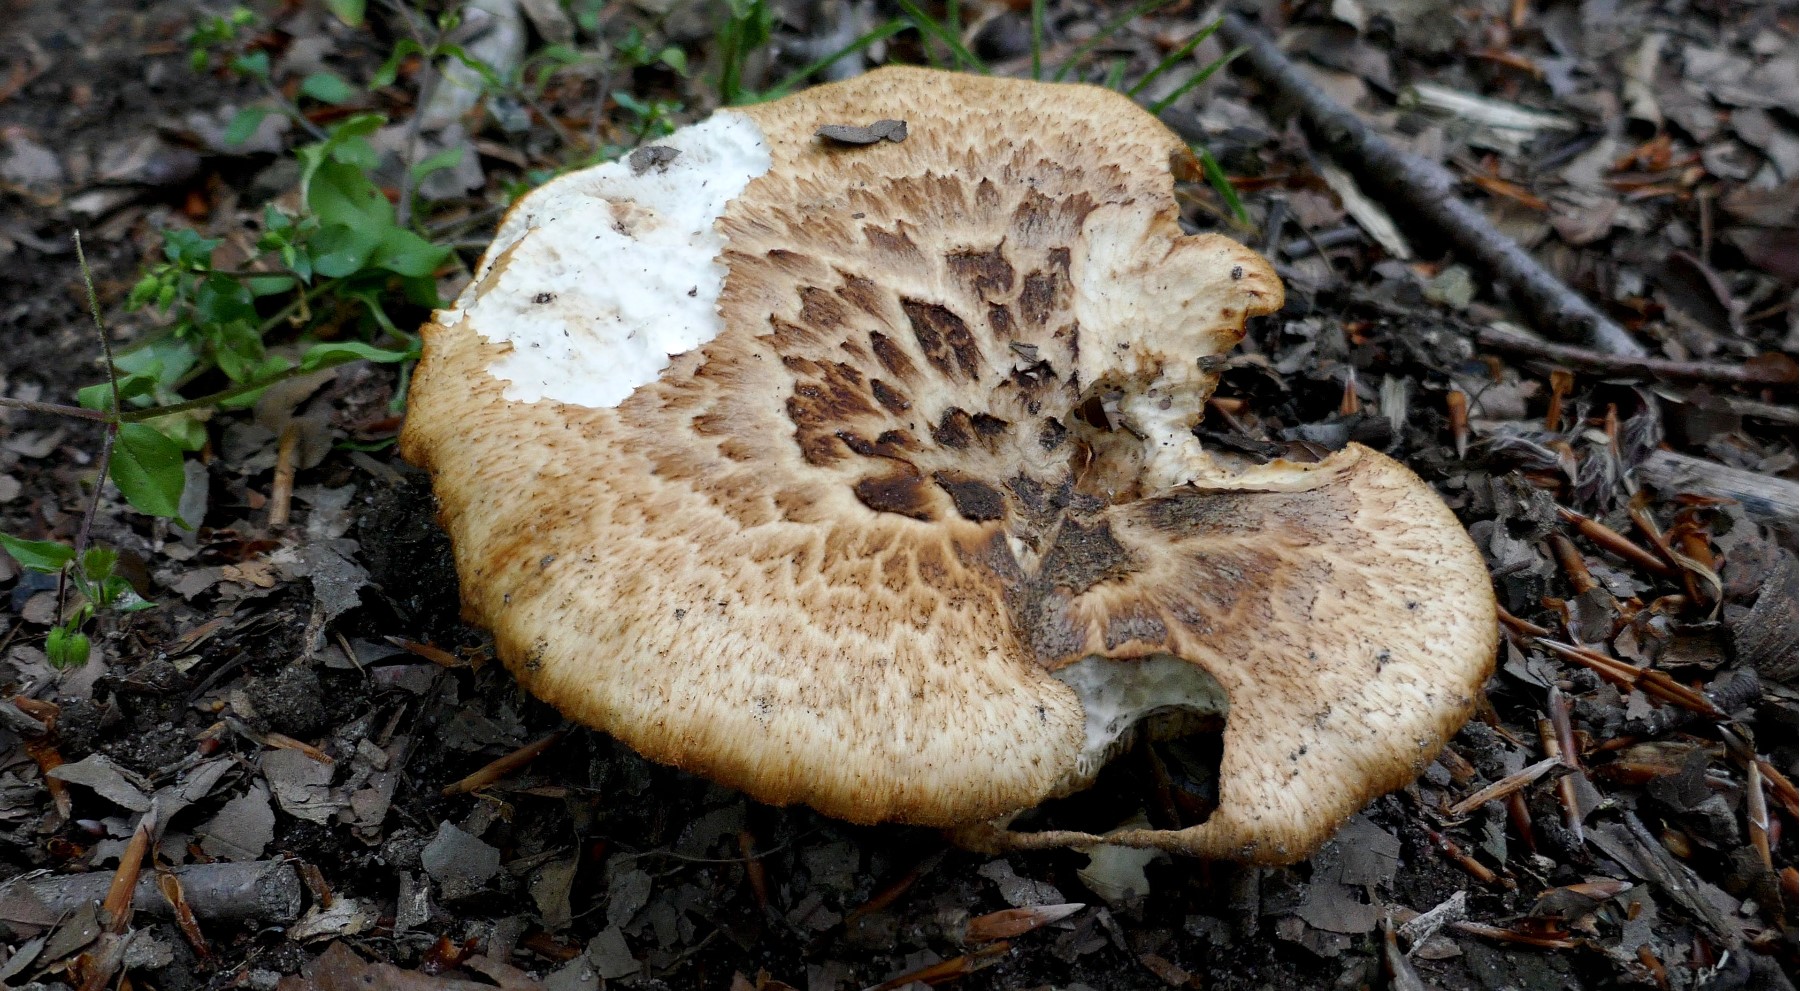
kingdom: Fungi
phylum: Basidiomycota
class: Agaricomycetes
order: Polyporales
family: Polyporaceae
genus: Polyporus
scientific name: Polyporus tuberaster
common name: knoldet stilkporesvamp
